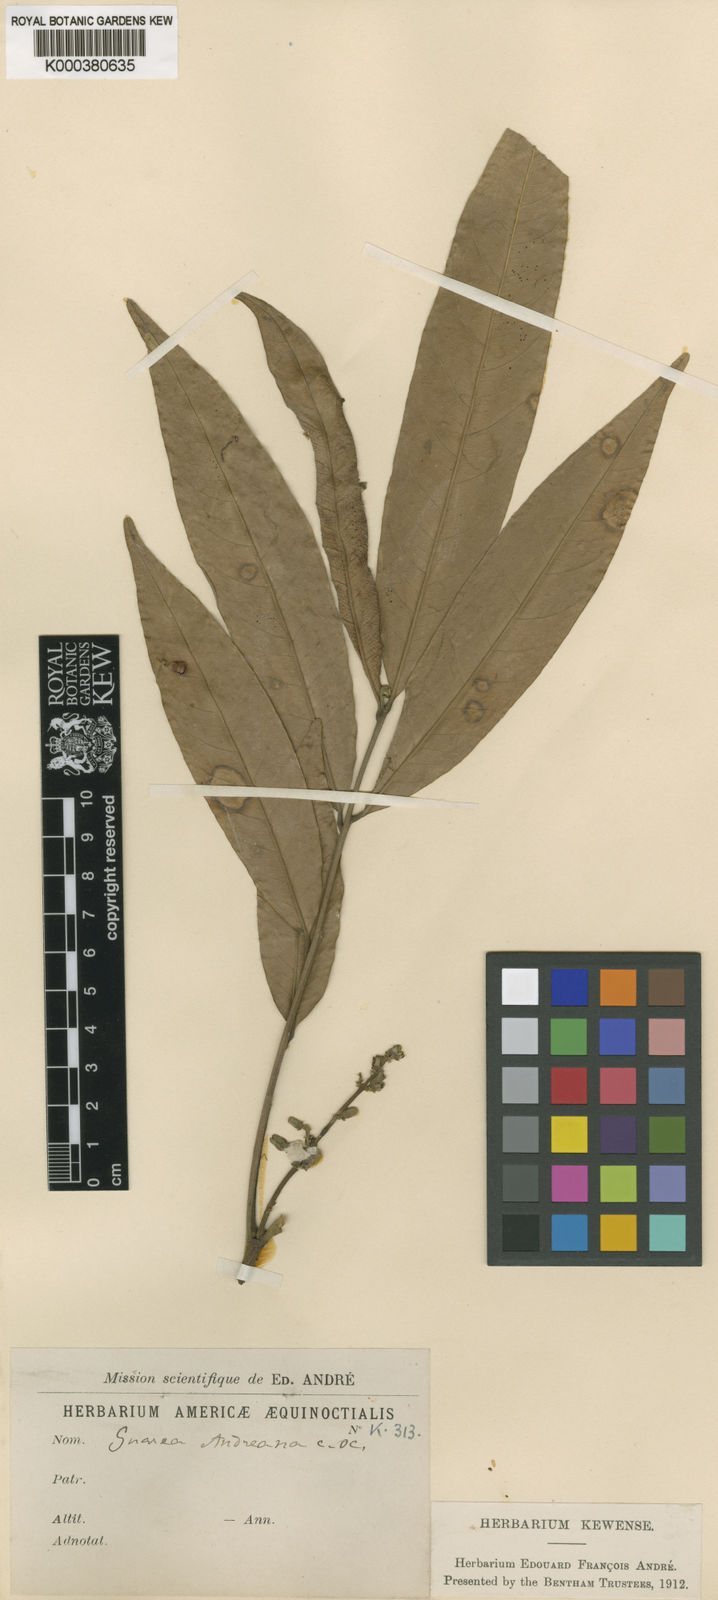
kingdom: Plantae
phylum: Tracheophyta
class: Magnoliopsida
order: Sapindales
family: Meliaceae
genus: Guarea
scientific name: Guarea guidonia
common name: American muskwood
